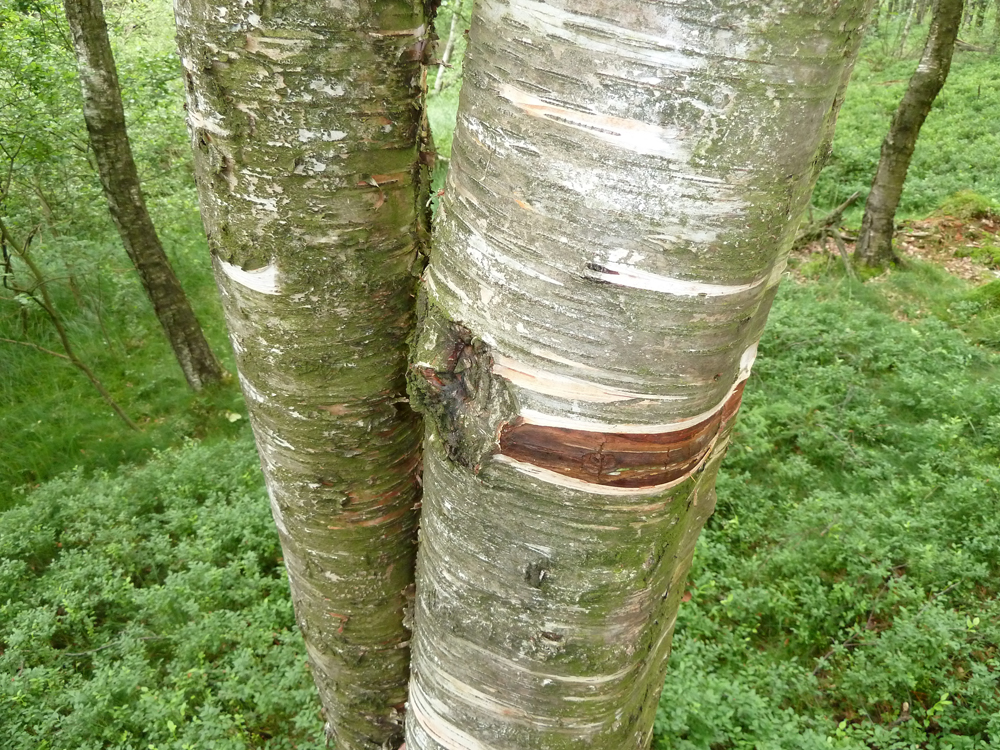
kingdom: Plantae
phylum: Tracheophyta
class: Magnoliopsida
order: Fagales
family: Betulaceae
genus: Betula
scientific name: Betula pubescens
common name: Downy birch
